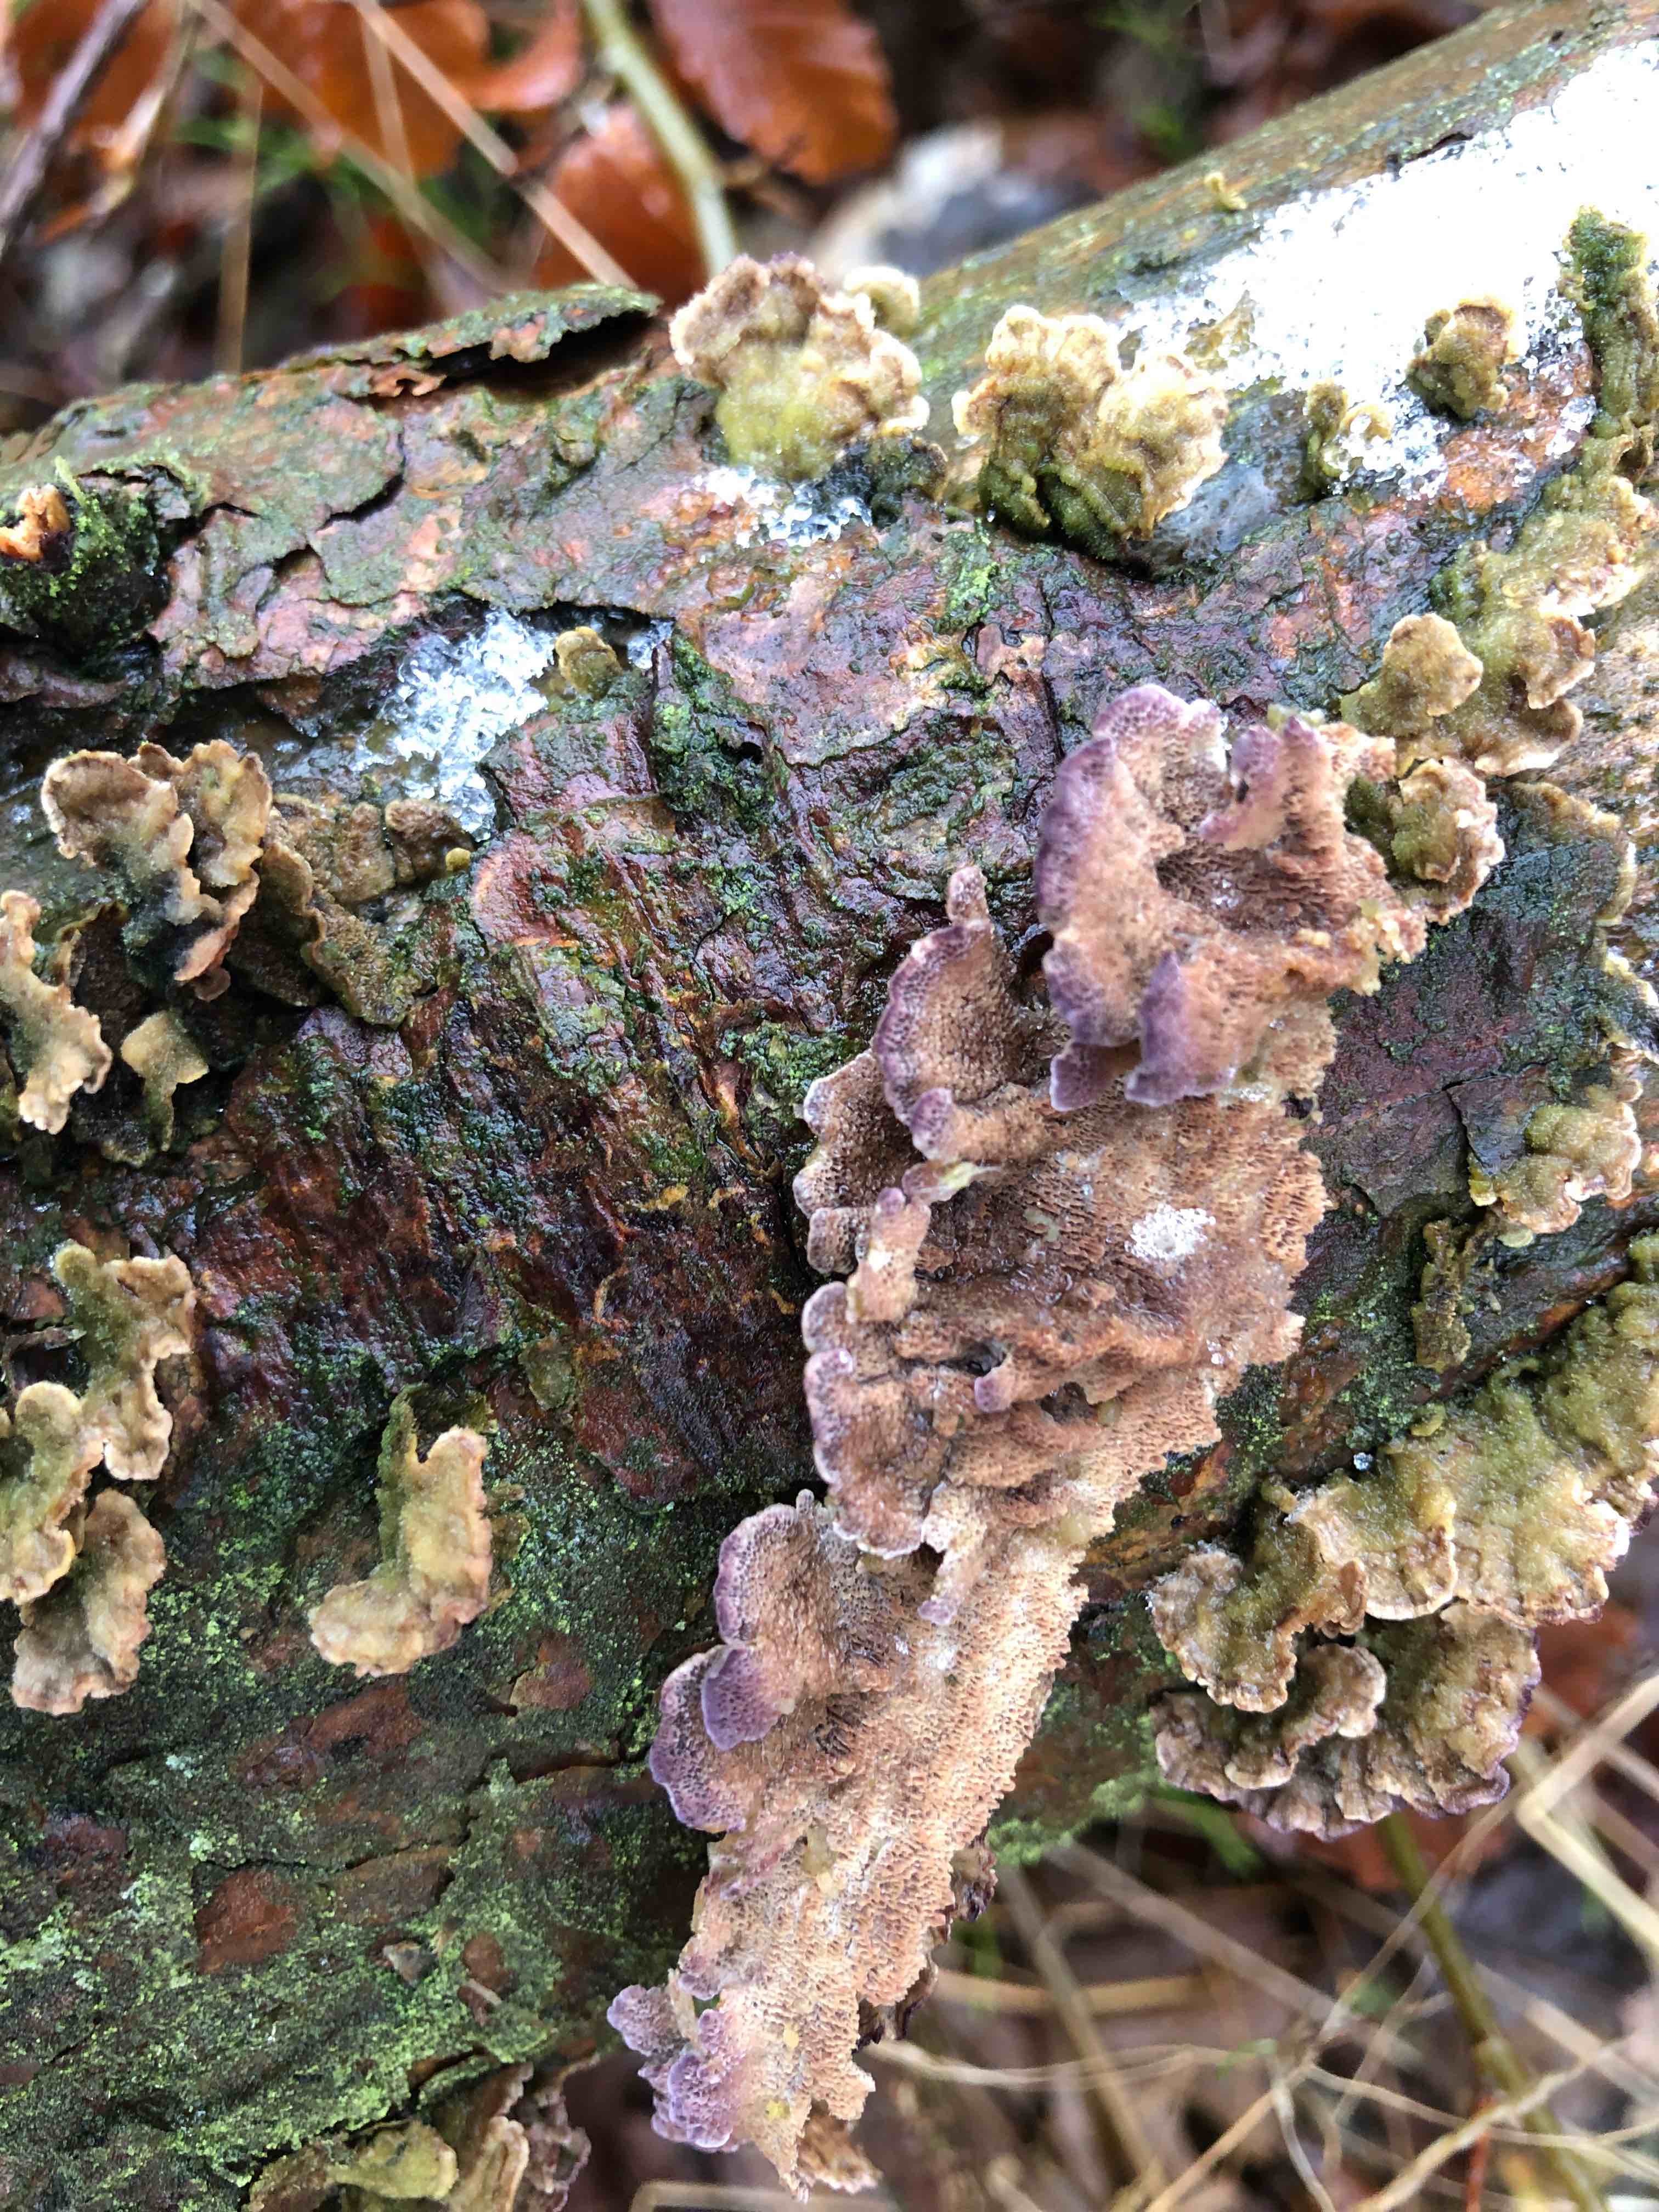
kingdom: Fungi
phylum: Basidiomycota
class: Agaricomycetes
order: Hymenochaetales
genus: Trichaptum
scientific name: Trichaptum abietinum
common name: almindelig violporesvamp
